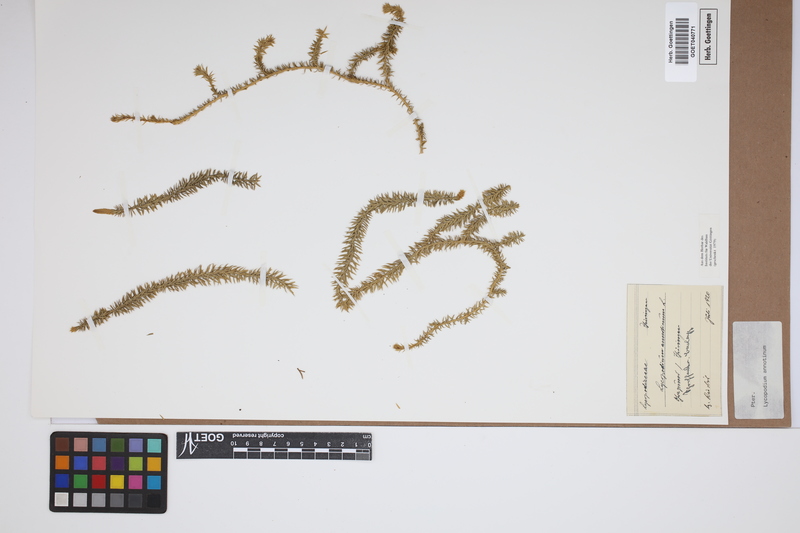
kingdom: Plantae
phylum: Tracheophyta
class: Lycopodiopsida
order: Lycopodiales
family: Lycopodiaceae
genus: Spinulum
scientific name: Spinulum annotinum
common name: Interrupted club-moss
